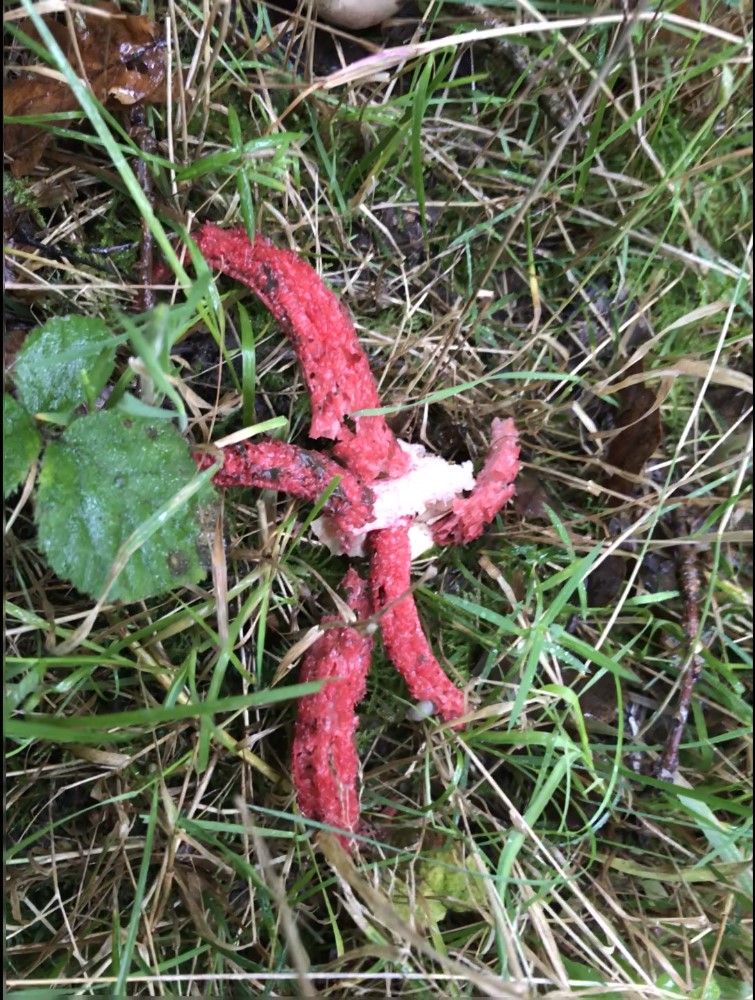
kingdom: Fungi
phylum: Basidiomycota
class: Agaricomycetes
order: Phallales
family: Phallaceae
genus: Clathrus
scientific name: Clathrus archeri
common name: blækspruttesvamp
